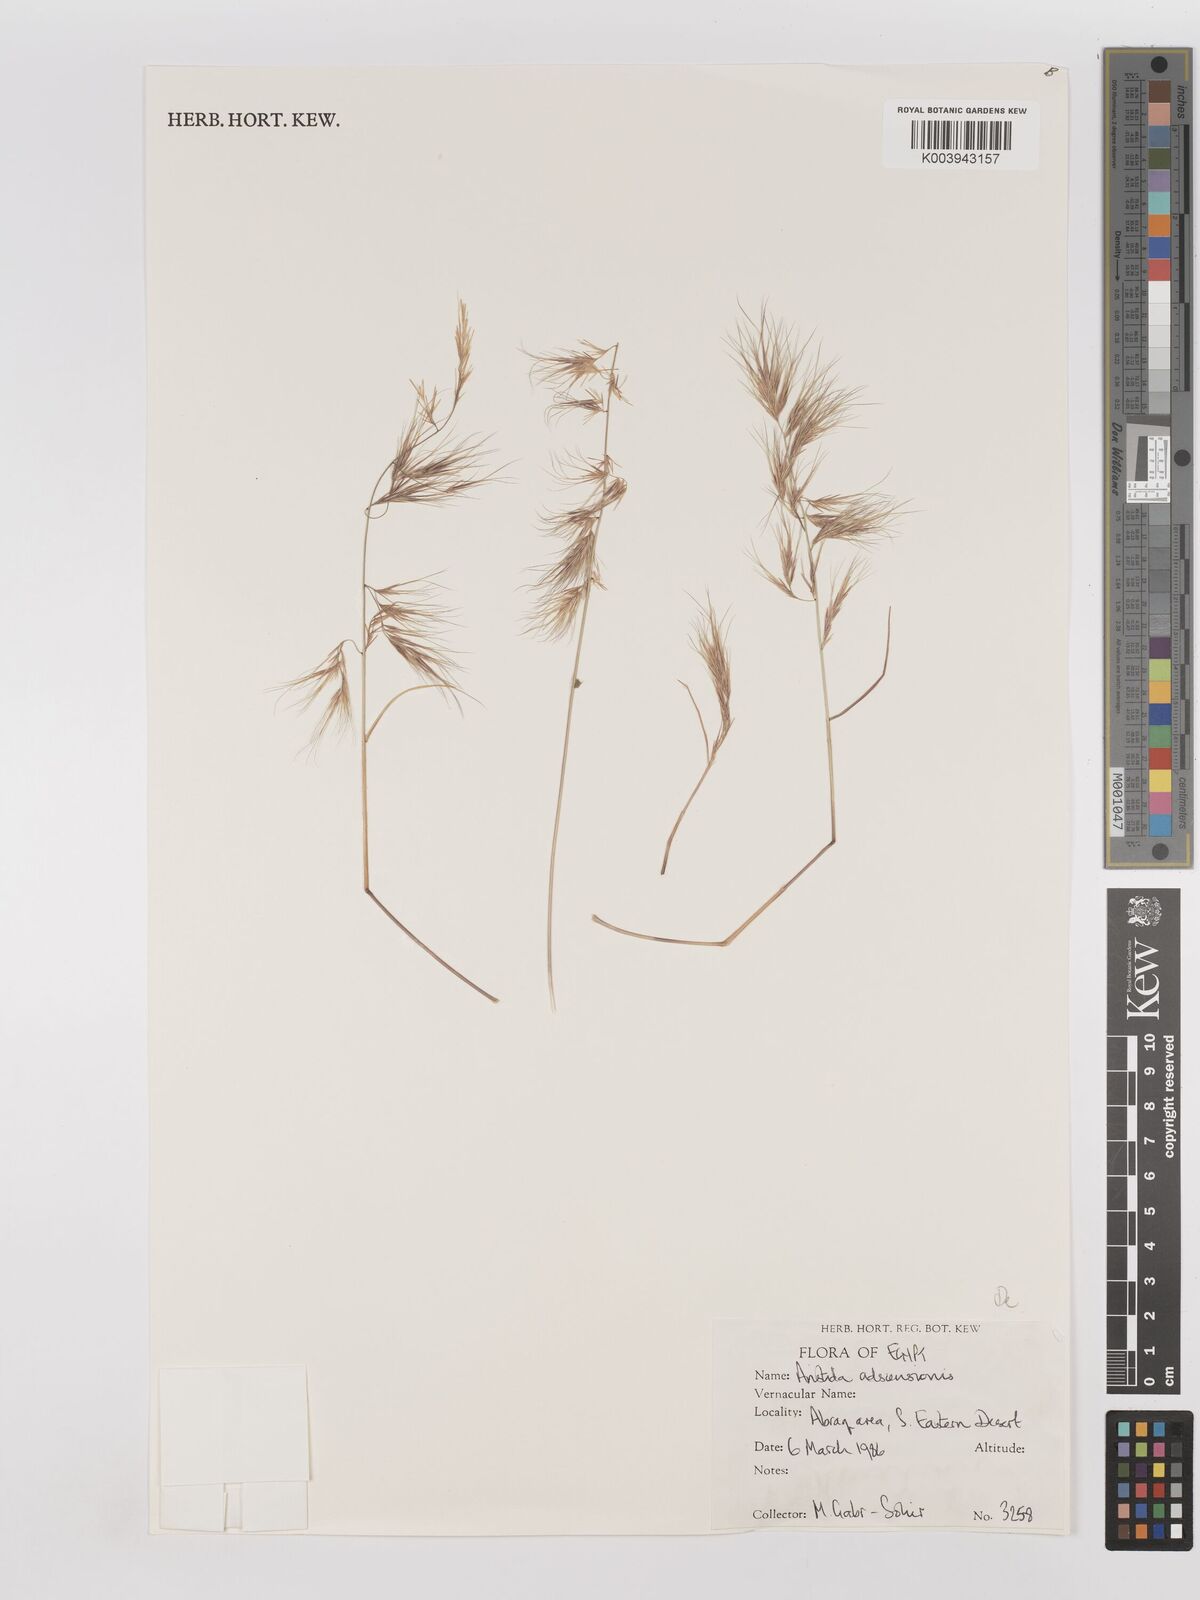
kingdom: Plantae
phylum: Tracheophyta
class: Liliopsida
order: Poales
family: Poaceae
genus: Aristida
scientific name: Aristida adscensionis
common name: Sixweeks threeawn
